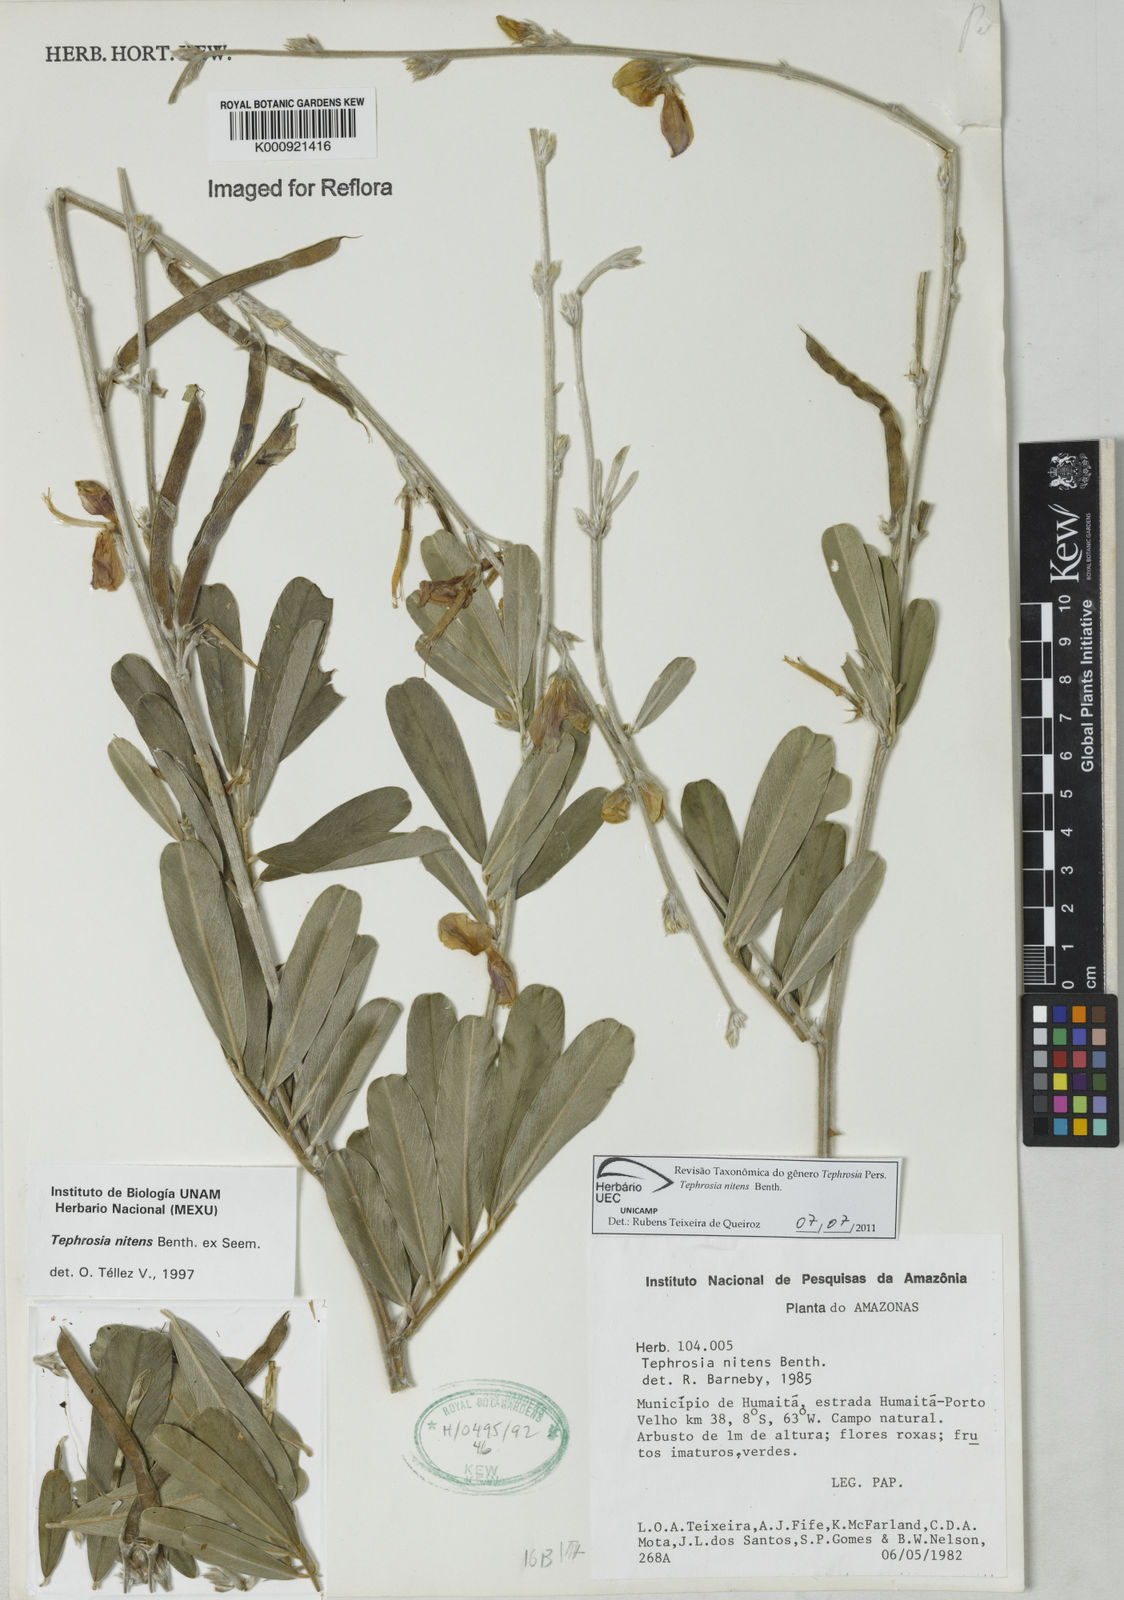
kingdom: Plantae
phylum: Tracheophyta
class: Magnoliopsida
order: Fabales
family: Fabaceae
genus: Tephrosia
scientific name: Tephrosia nitens
